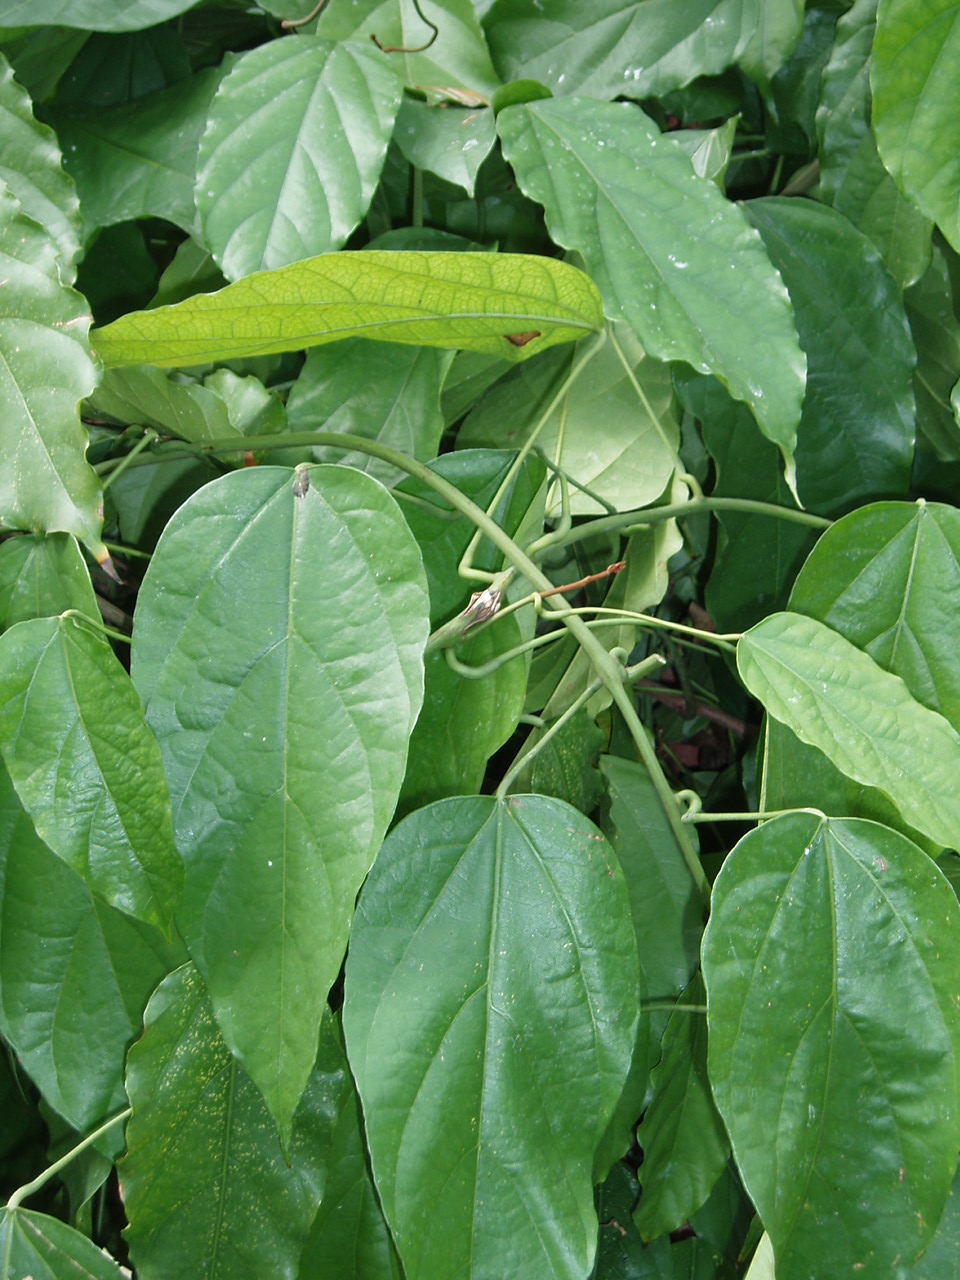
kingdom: Plantae
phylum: Tracheophyta
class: Magnoliopsida
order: Ranunculales
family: Menispermaceae
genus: Tinomiscium
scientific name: Tinomiscium petiolare
